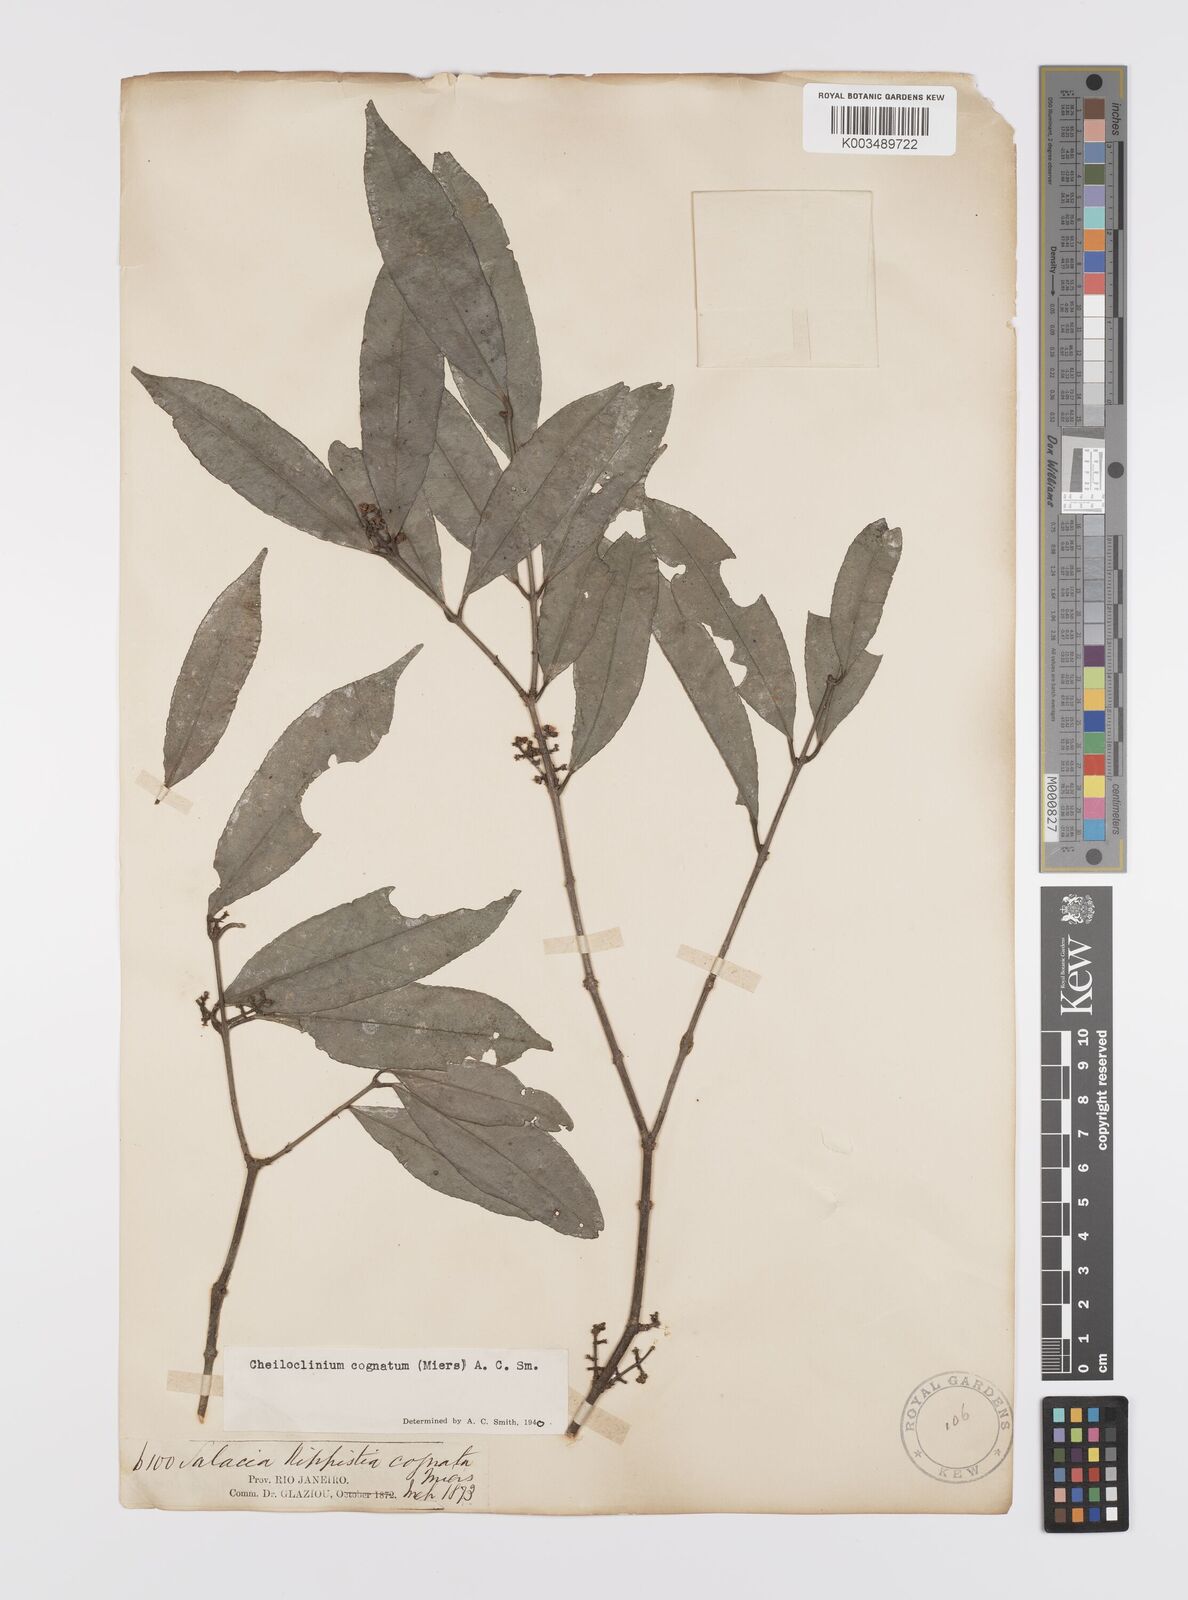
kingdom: Plantae
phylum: Tracheophyta
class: Magnoliopsida
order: Celastrales
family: Celastraceae
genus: Cheiloclinium
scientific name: Cheiloclinium cognatum
